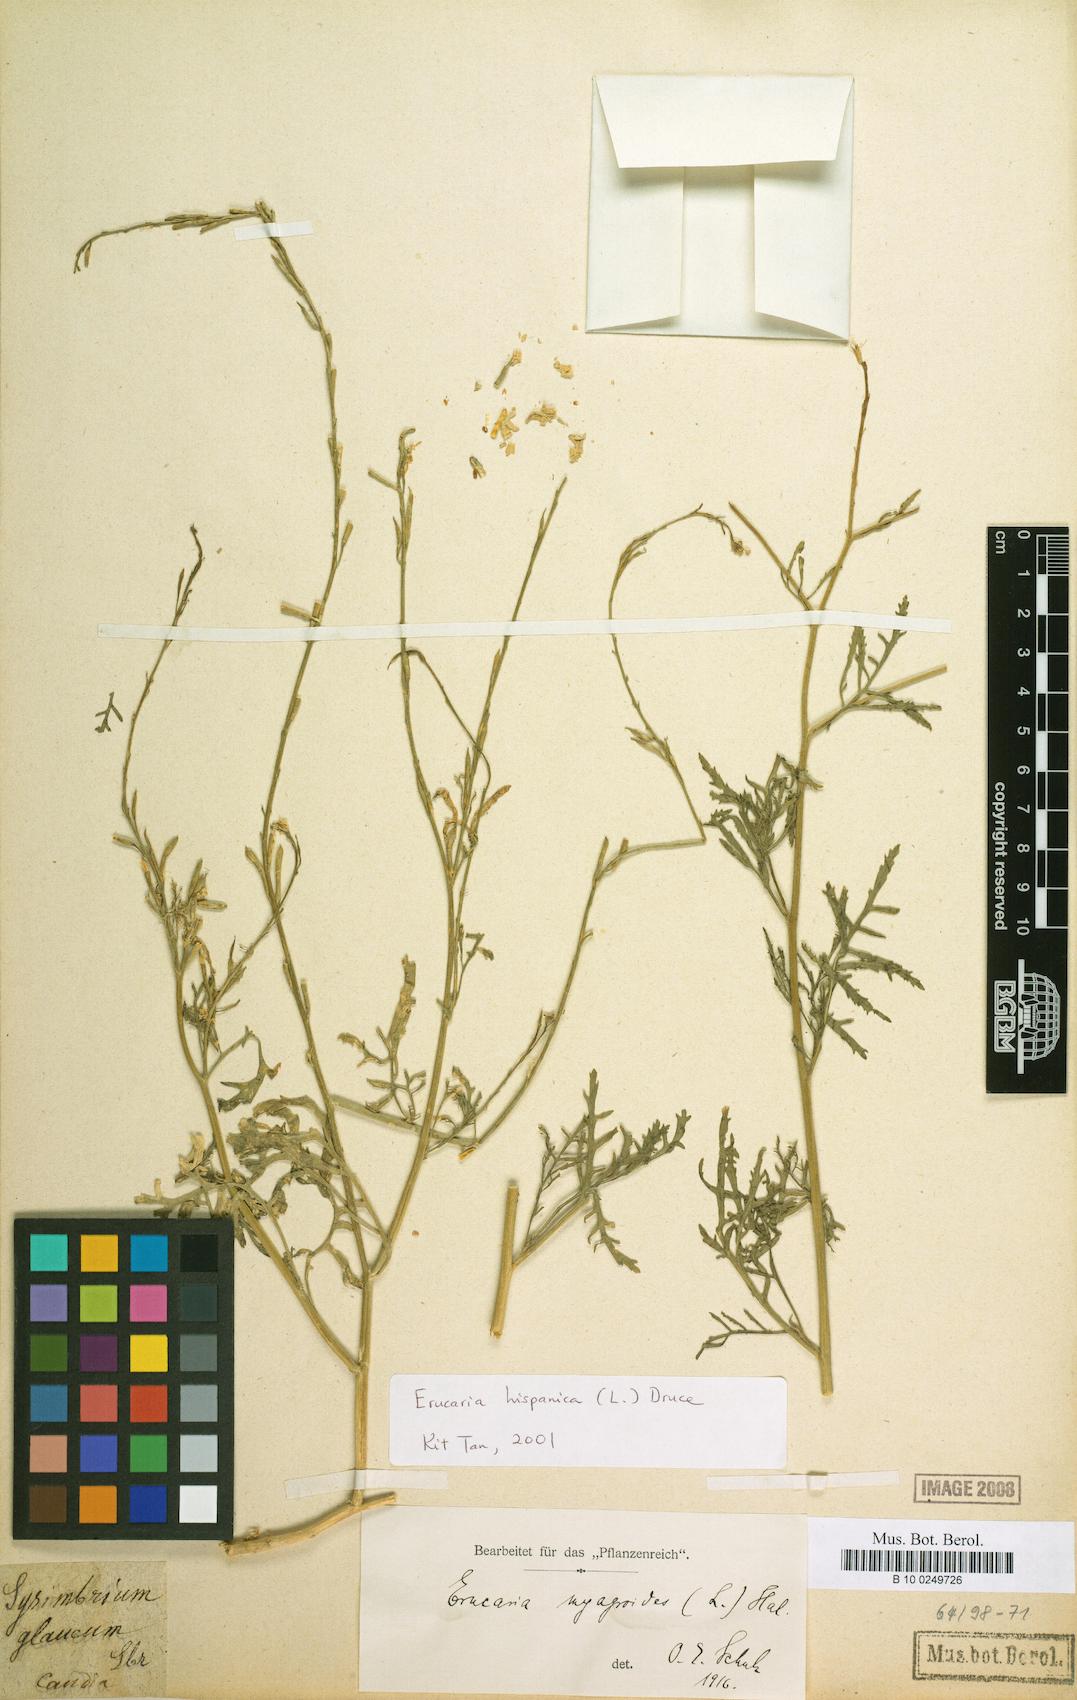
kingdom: Plantae
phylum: Tracheophyta
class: Magnoliopsida
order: Brassicales
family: Brassicaceae
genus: Erucaria
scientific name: Erucaria hispanica
